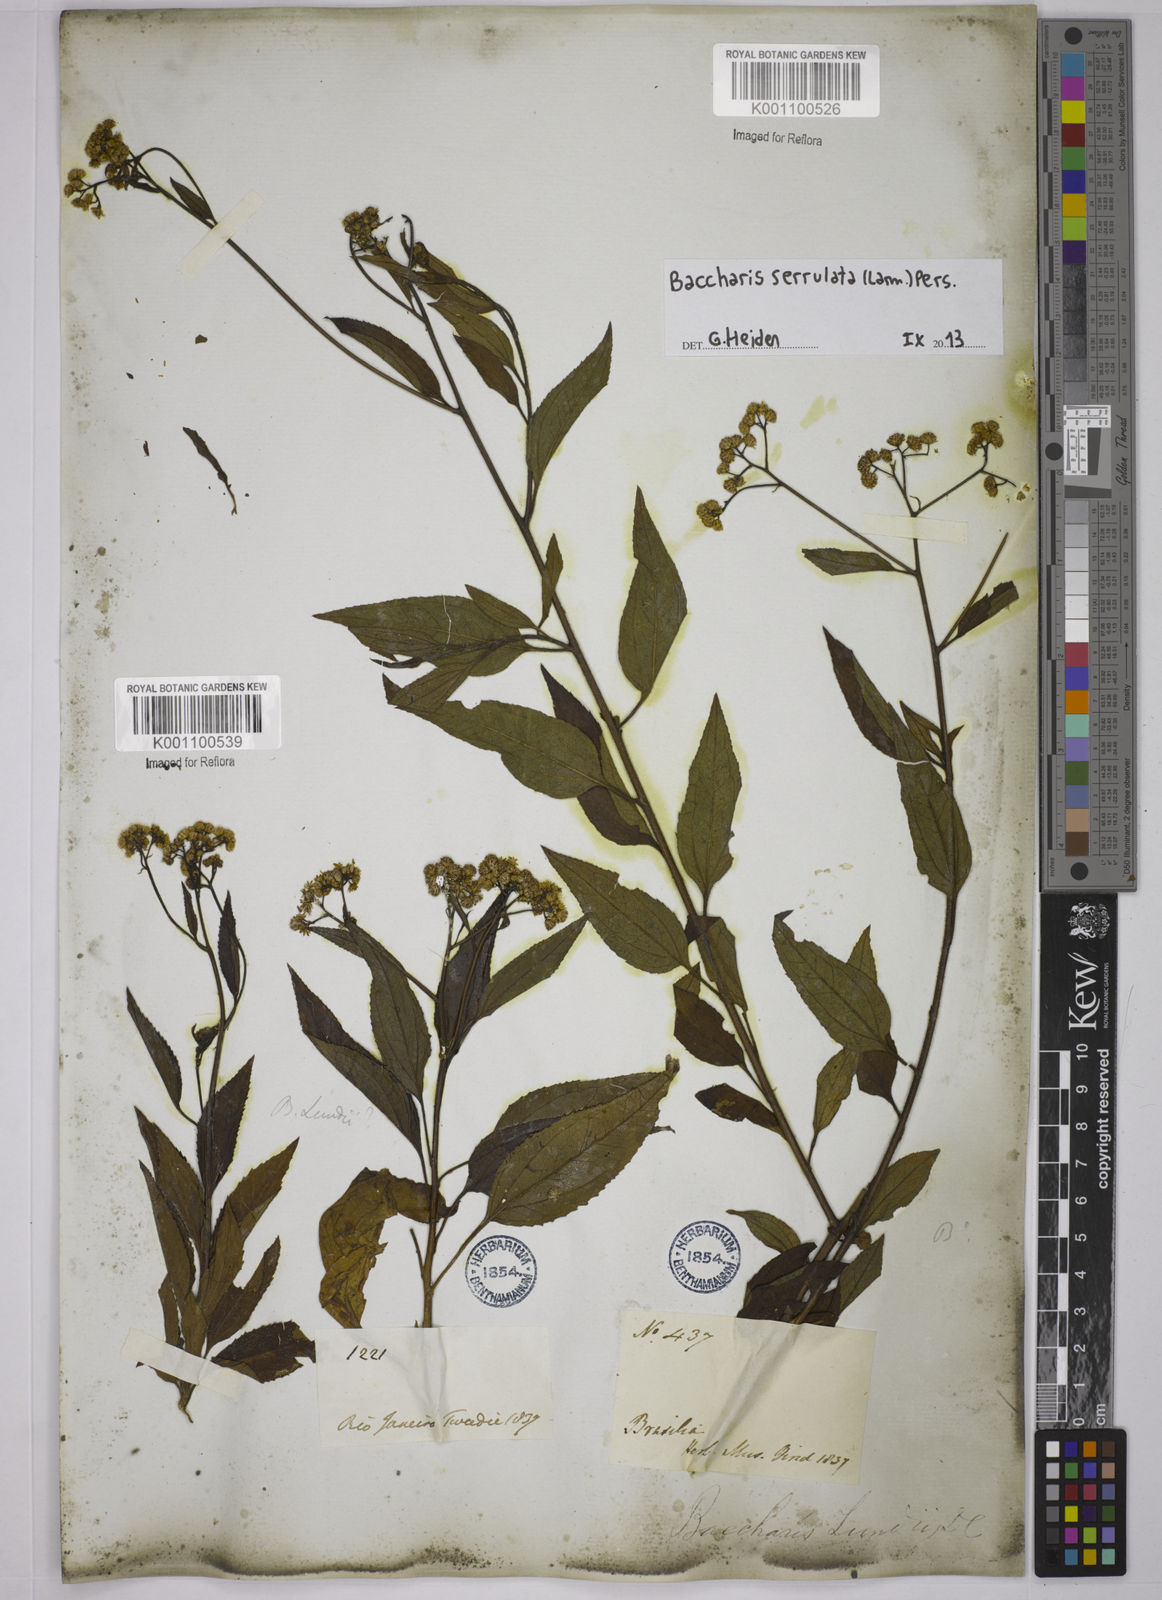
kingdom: Plantae
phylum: Tracheophyta
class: Magnoliopsida
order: Asterales
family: Asteraceae
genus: Baccharis
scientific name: Baccharis serrulata
